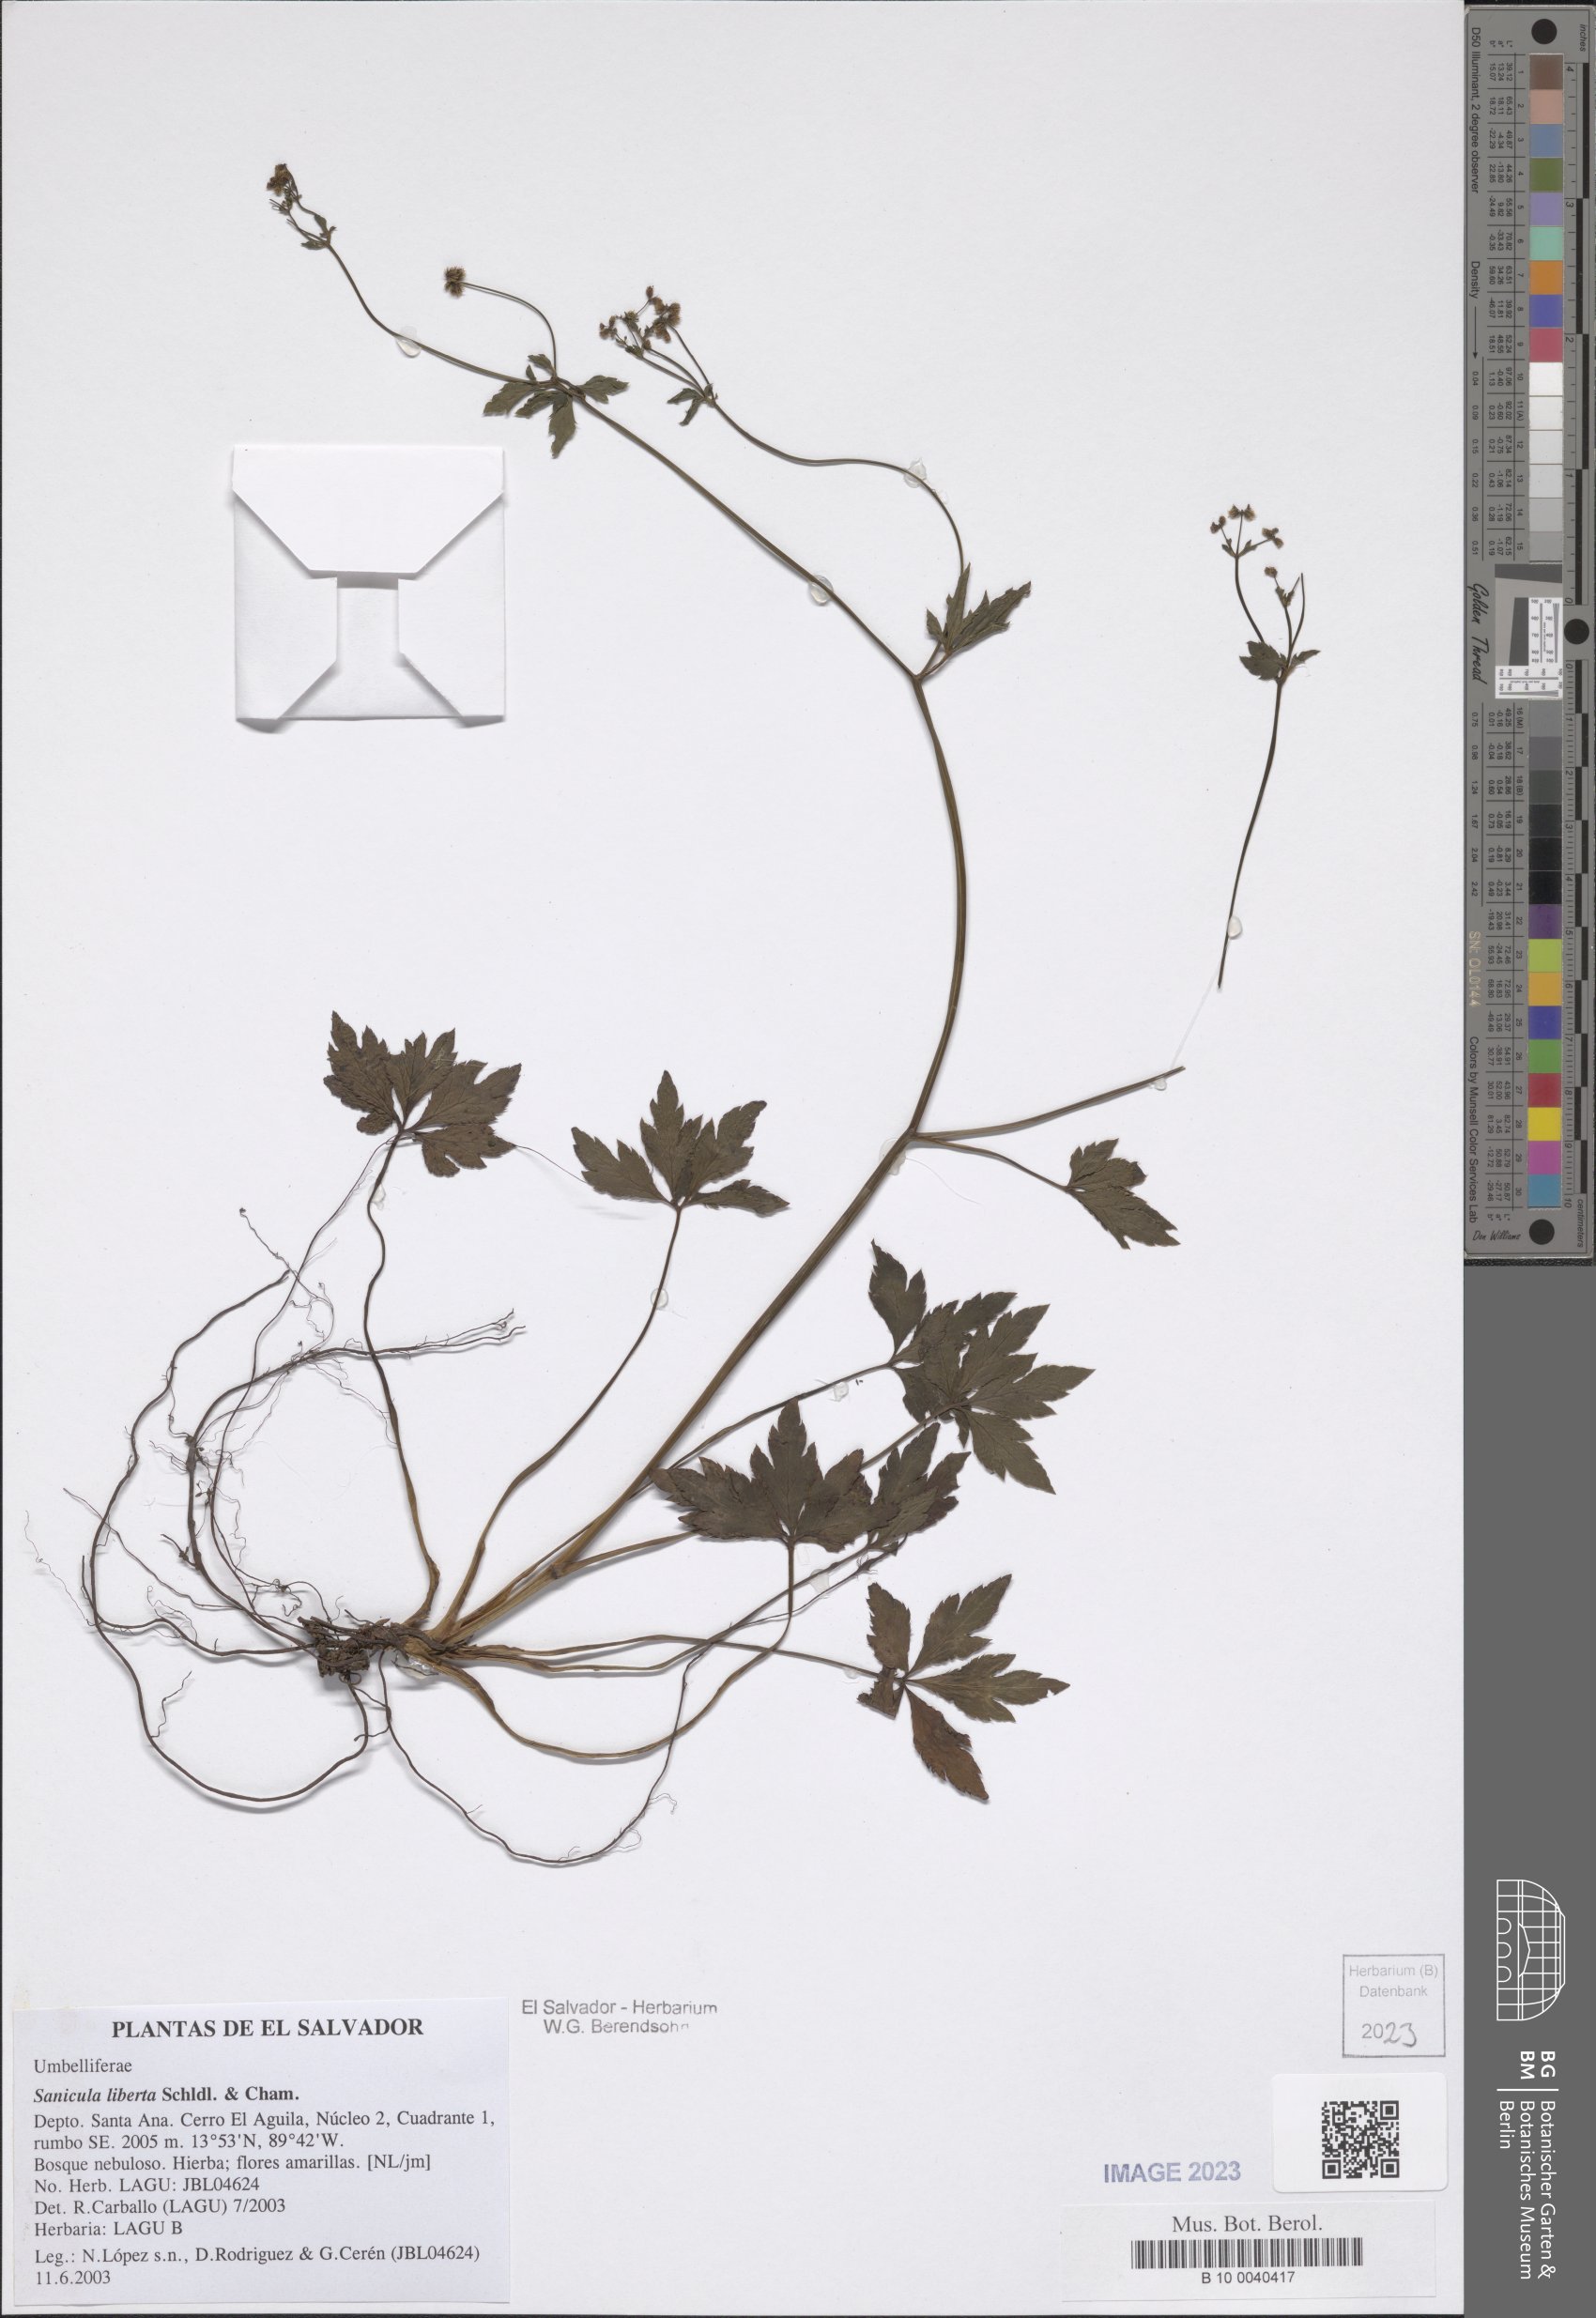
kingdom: Plantae
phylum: Tracheophyta
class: Magnoliopsida
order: Apiales
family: Apiaceae
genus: Sanicula
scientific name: Sanicula liberta
